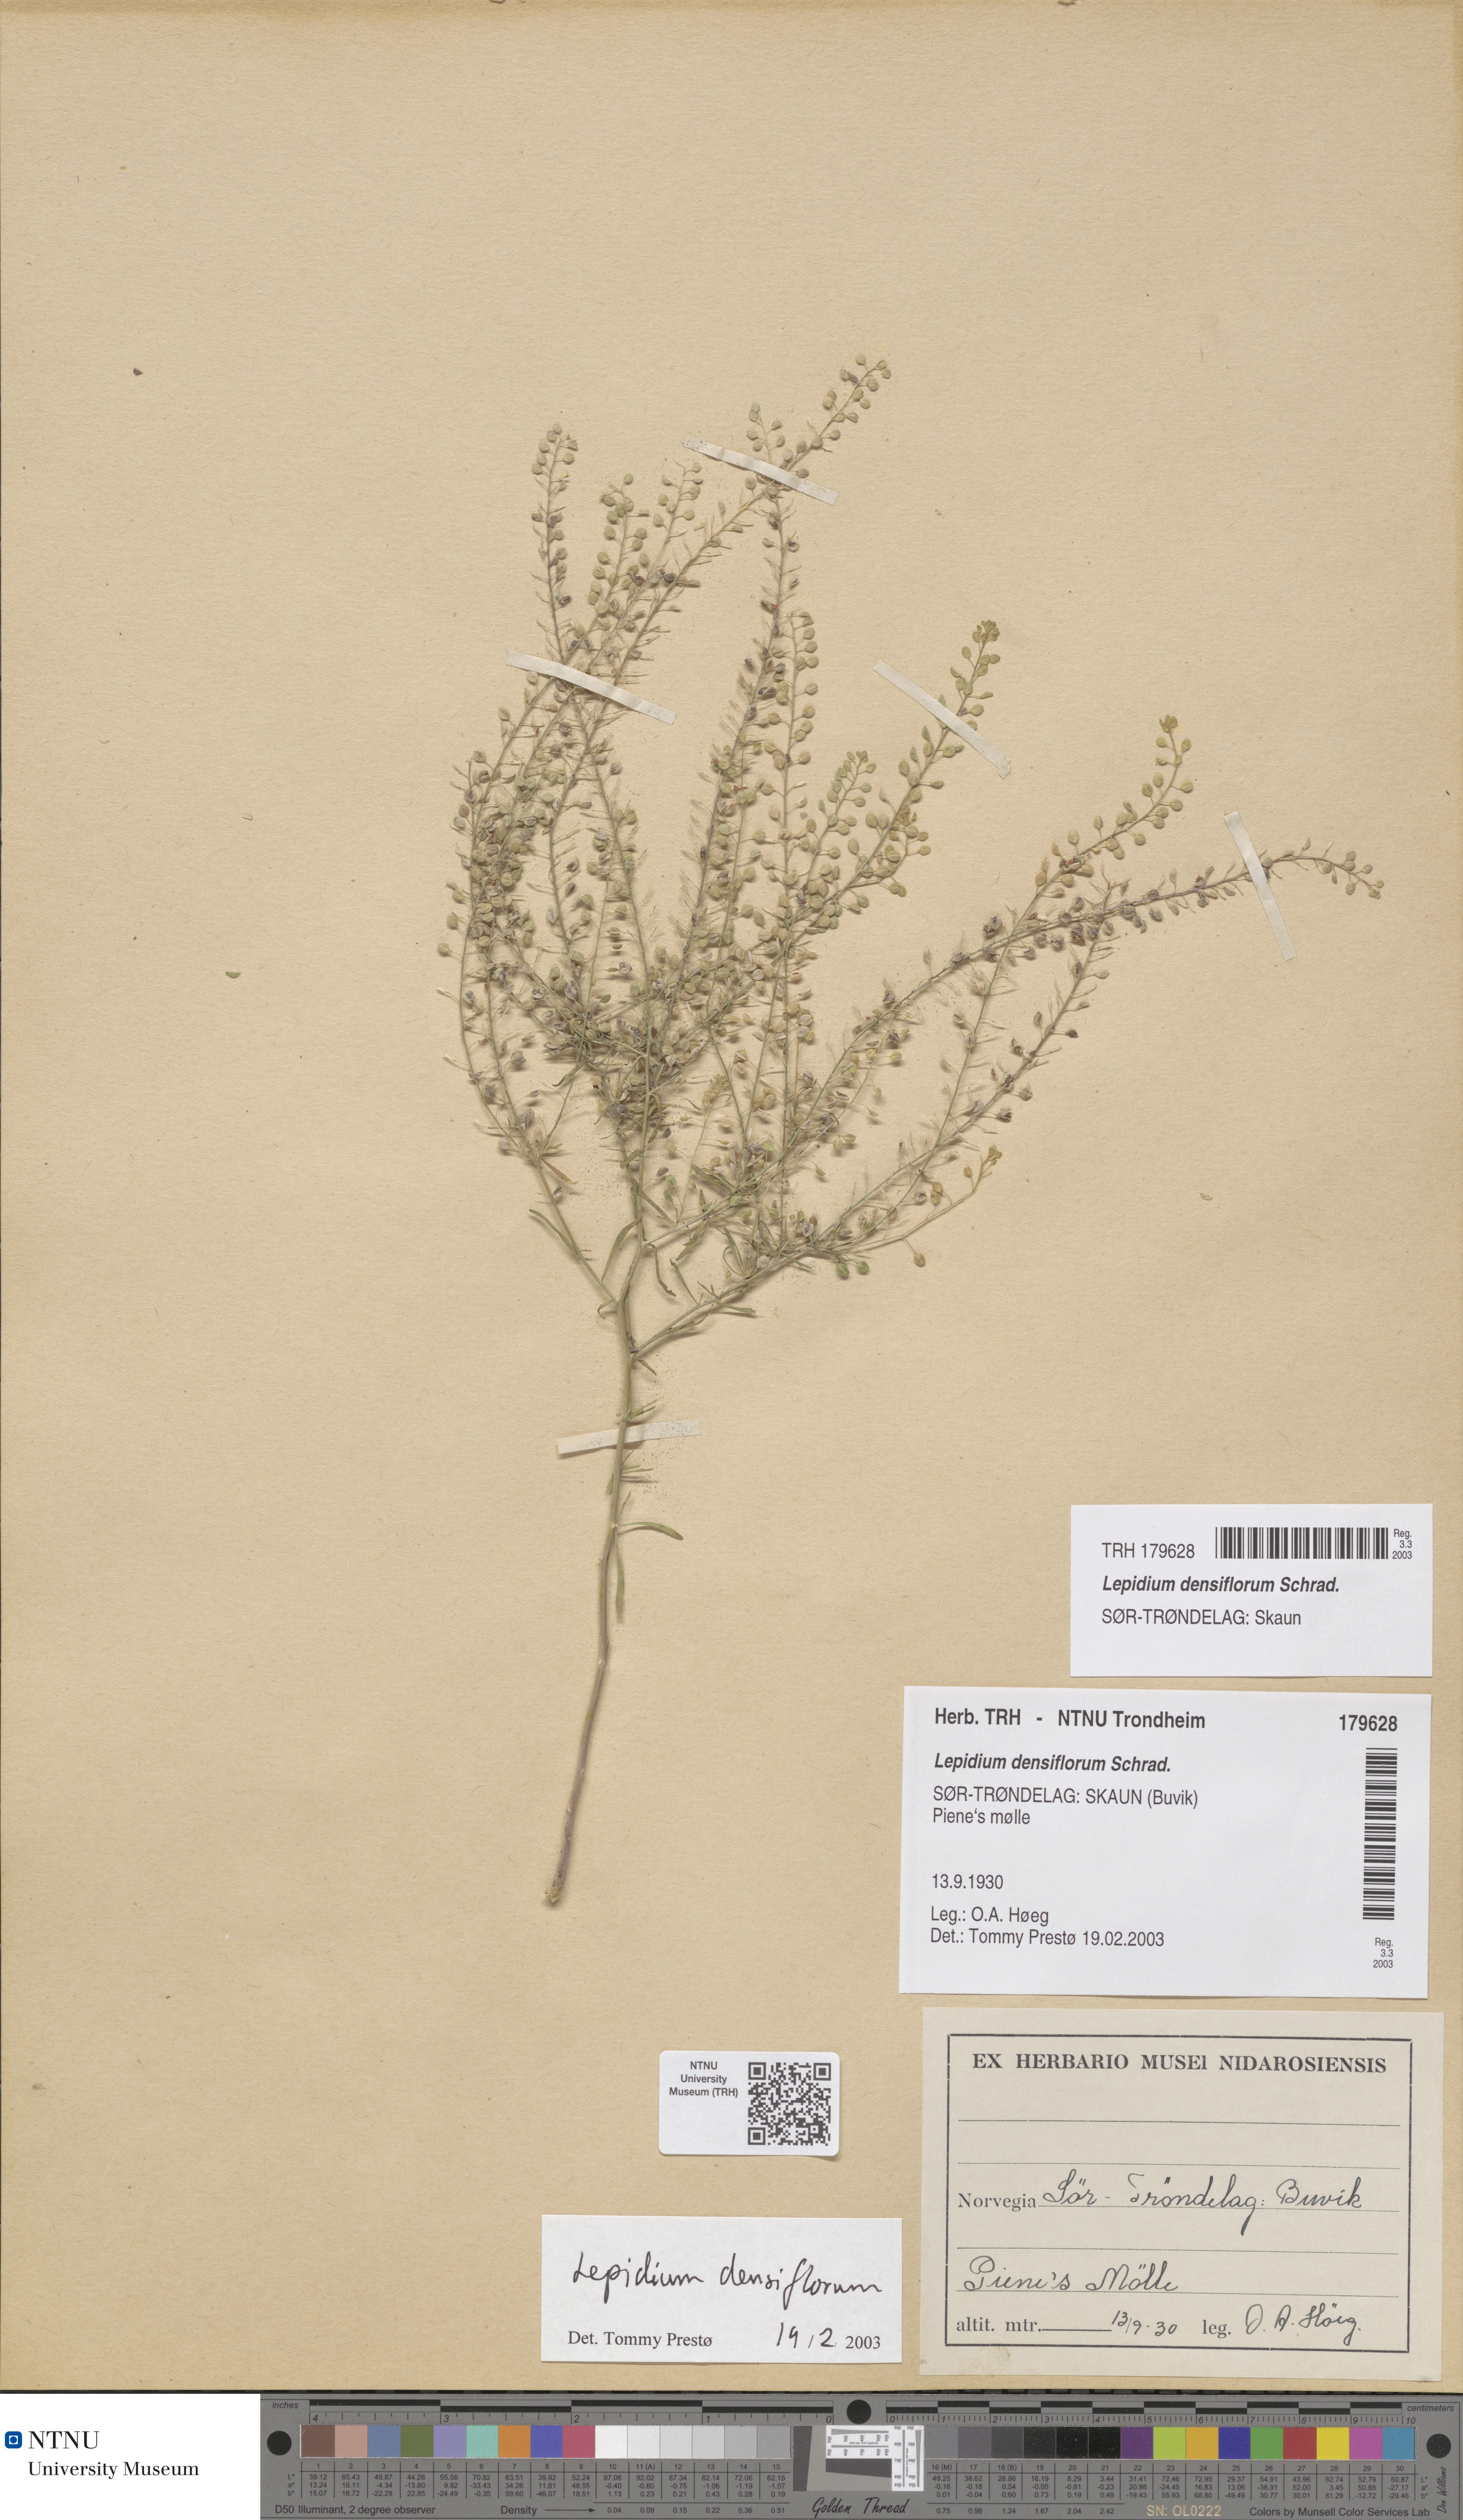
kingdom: Plantae
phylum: Tracheophyta
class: Magnoliopsida
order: Brassicales
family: Brassicaceae
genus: Lepidium
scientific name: Lepidium densiflorum
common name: Miner's pepperwort
